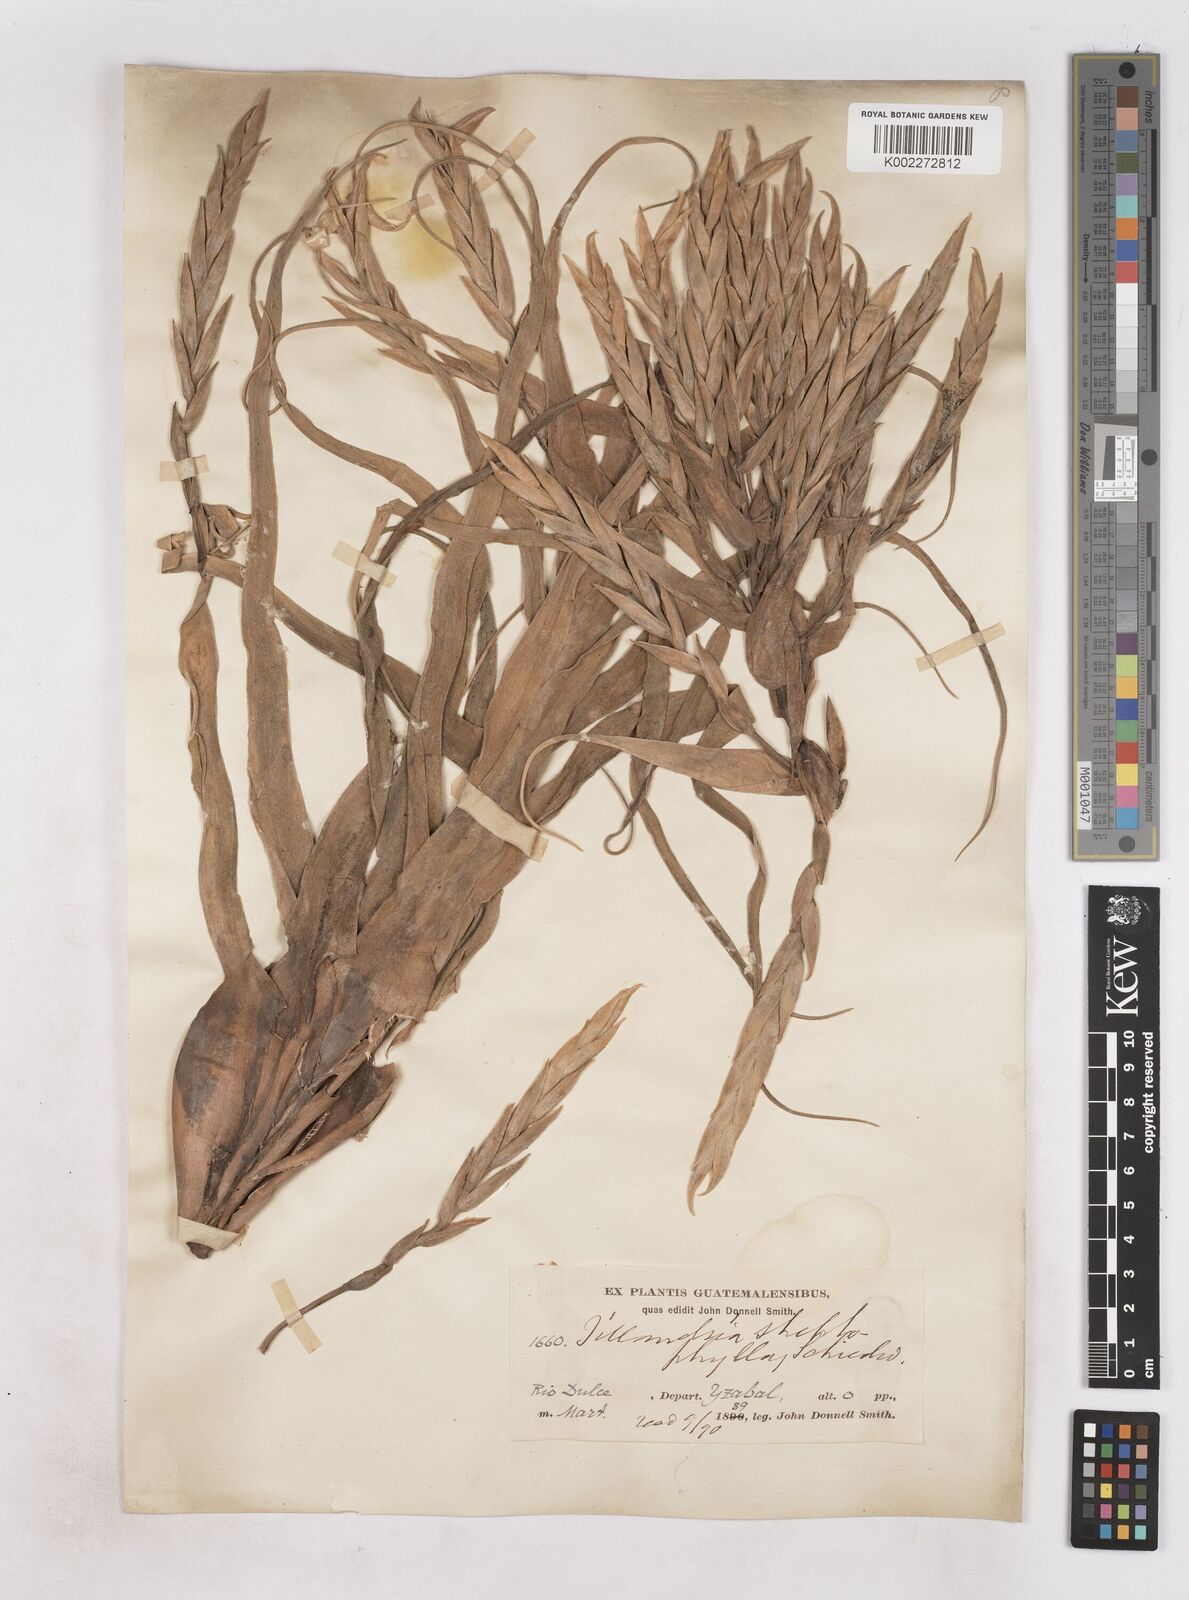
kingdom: Plantae
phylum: Tracheophyta
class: Liliopsida
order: Poales
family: Bromeliaceae
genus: Tillandsia
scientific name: Tillandsia streptophylla
